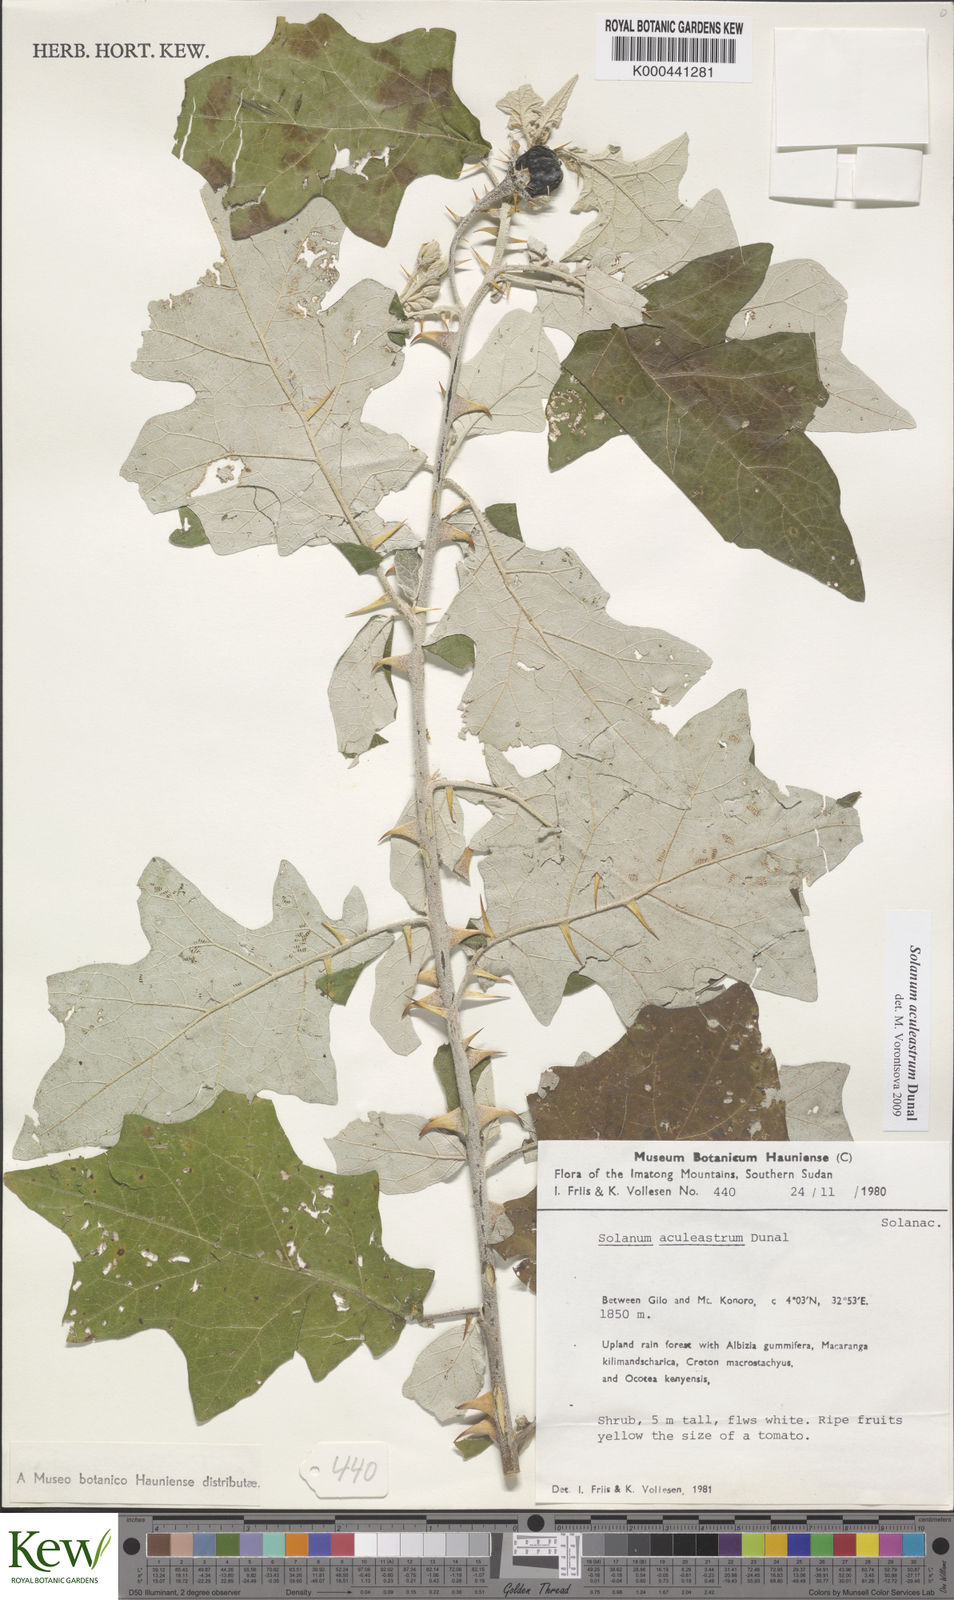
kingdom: Plantae
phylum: Tracheophyta
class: Magnoliopsida
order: Solanales
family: Solanaceae
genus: Solanum
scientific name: Solanum aculeastrum
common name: Goat bitter-apple
